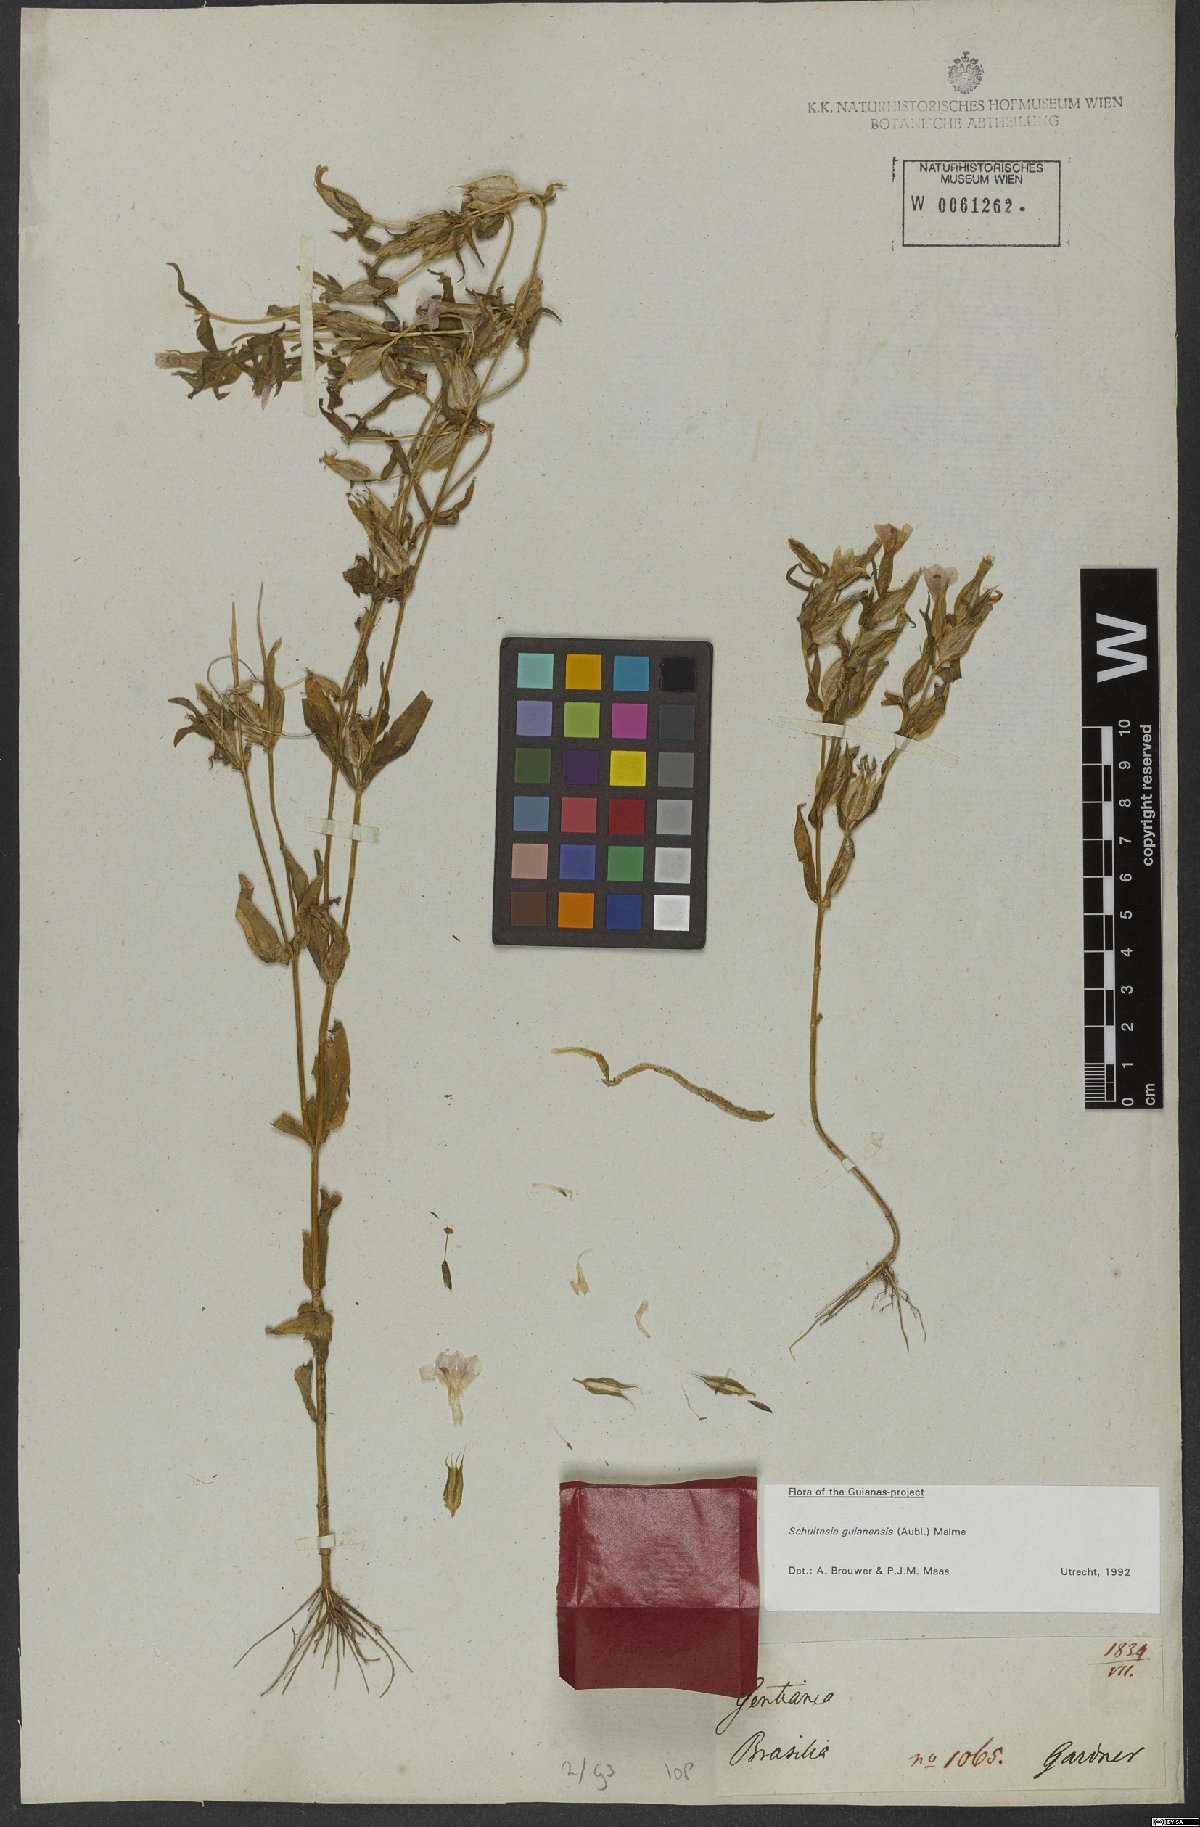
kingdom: Plantae
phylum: Tracheophyta
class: Magnoliopsida
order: Gentianales
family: Gentianaceae
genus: Schultesia
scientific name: Schultesia guianensis
